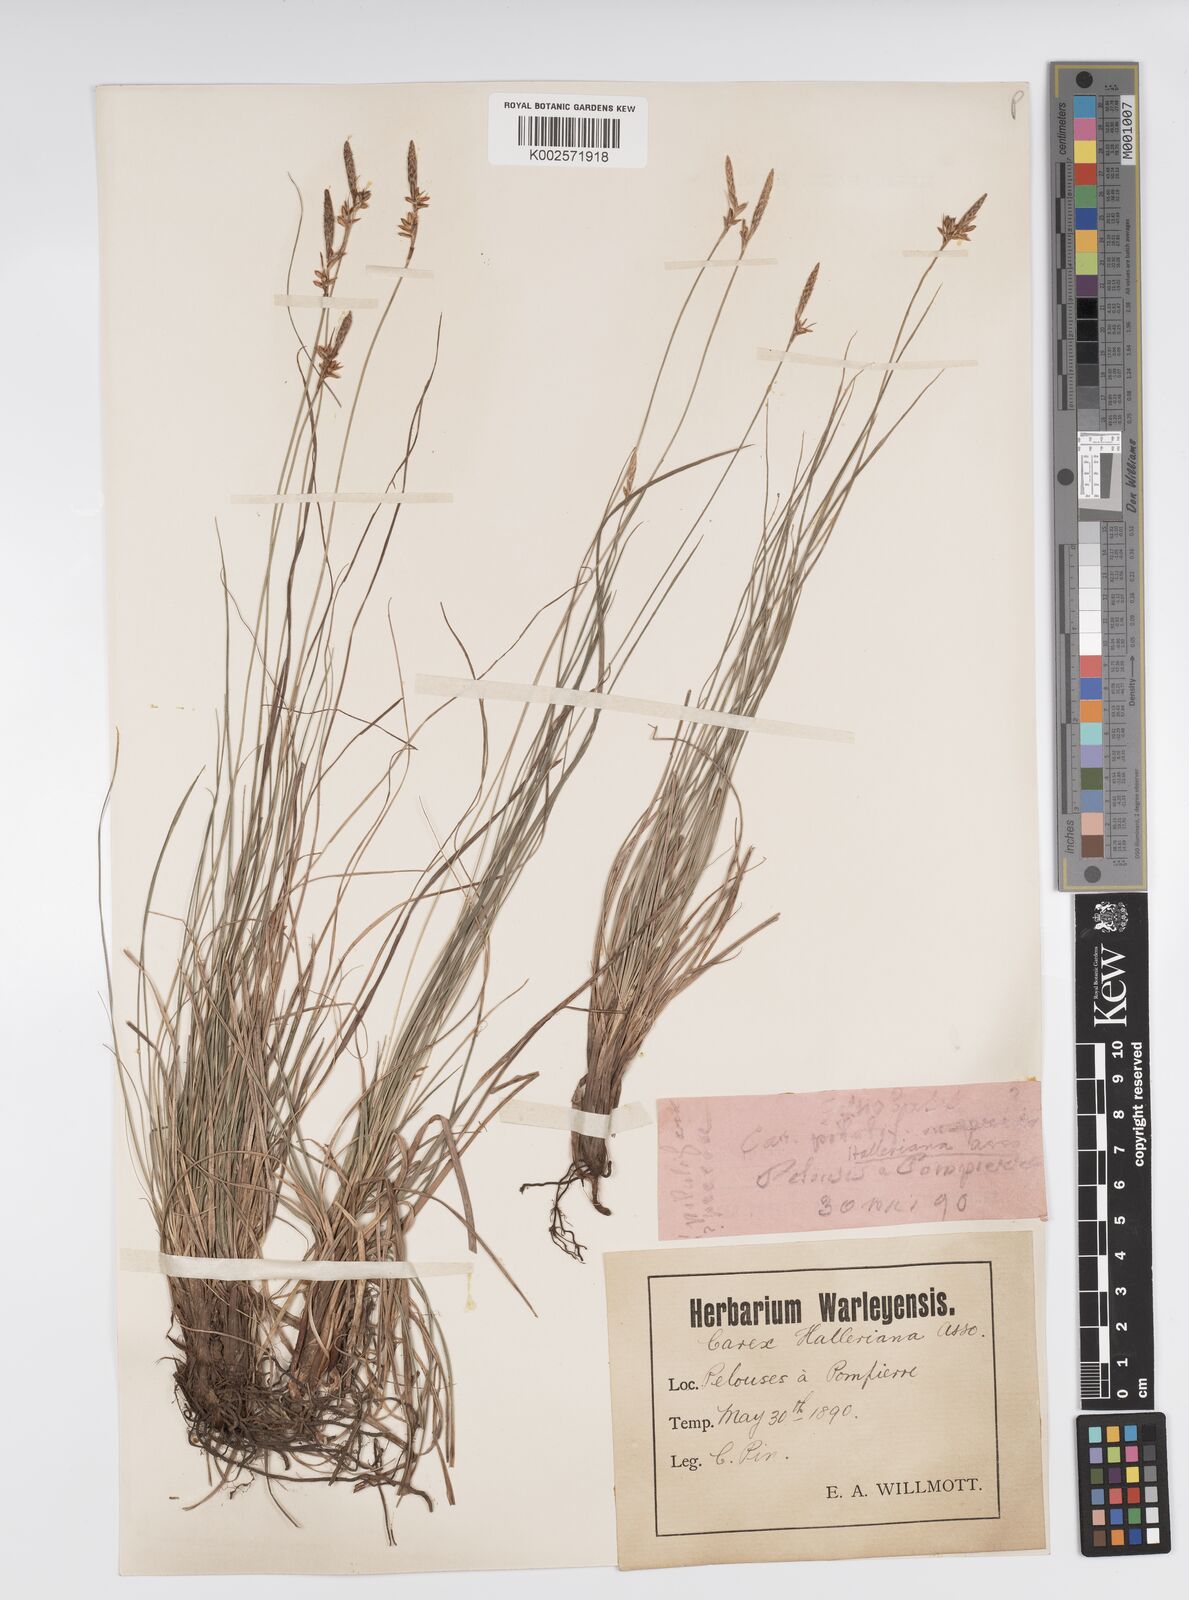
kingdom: Plantae
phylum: Tracheophyta
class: Liliopsida
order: Poales
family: Cyperaceae
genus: Carex
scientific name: Carex halleriana
